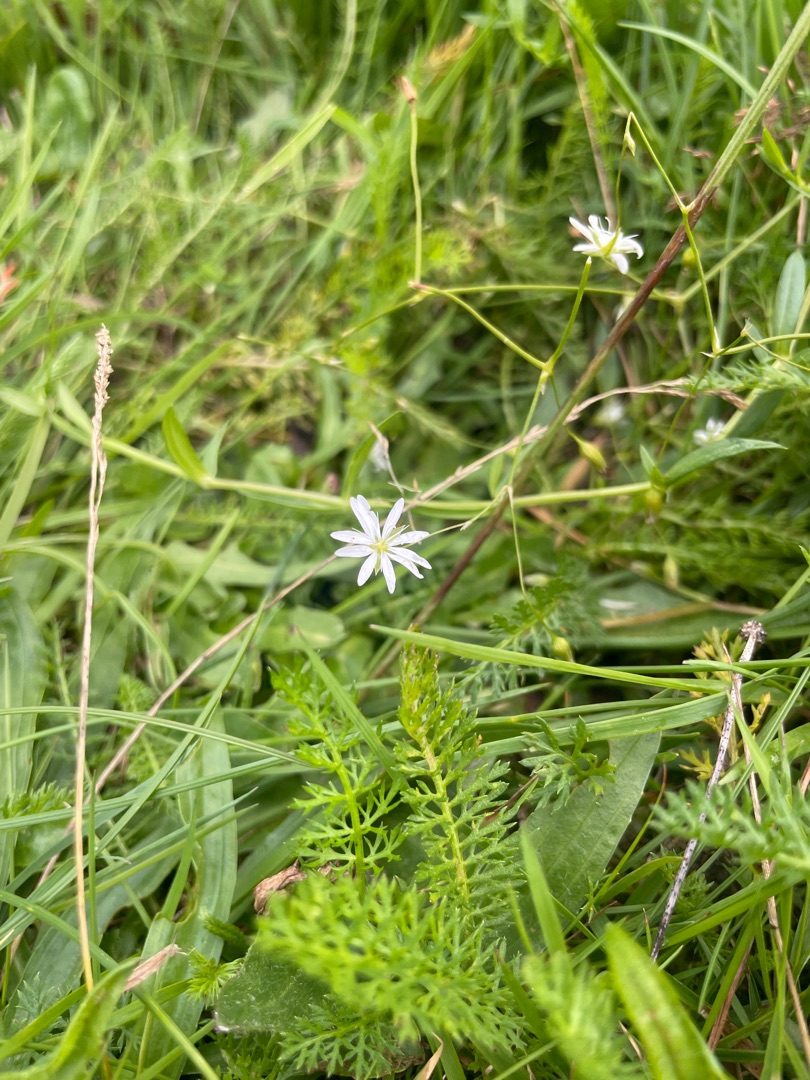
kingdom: Plantae
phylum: Tracheophyta
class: Magnoliopsida
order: Caryophyllales
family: Caryophyllaceae
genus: Stellaria
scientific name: Stellaria graminea
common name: Græsbladet fladstjerne
